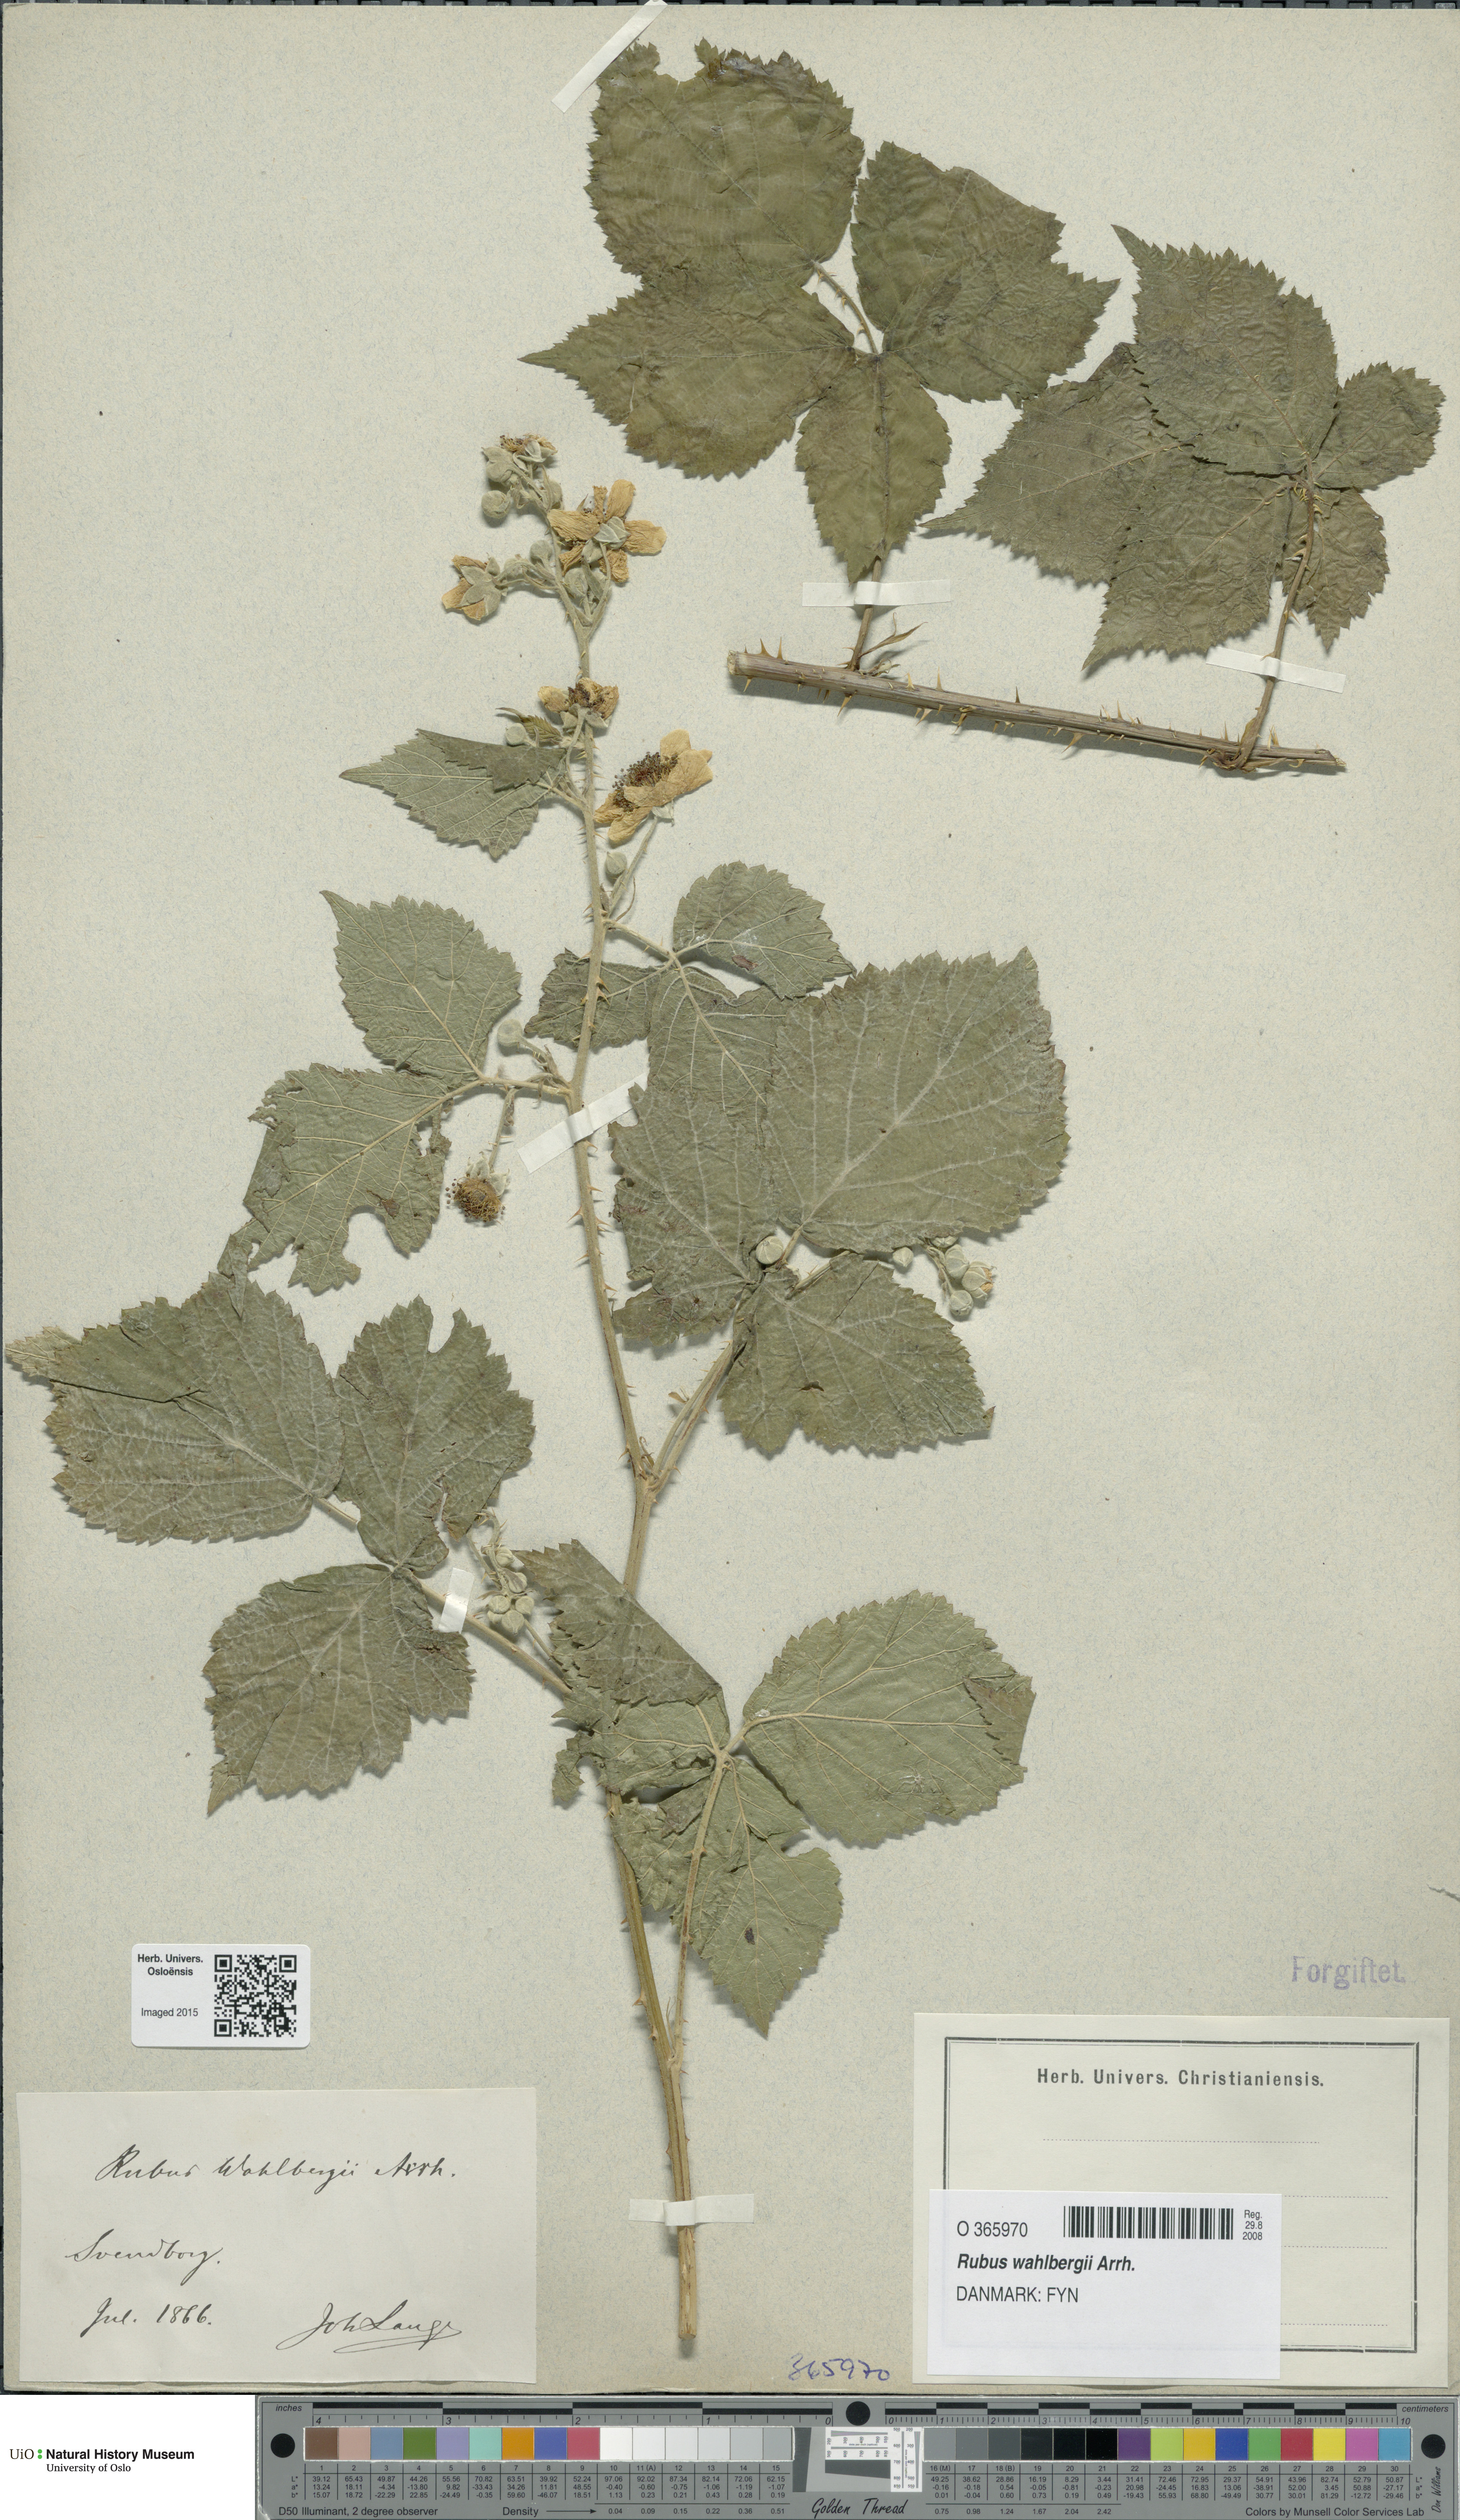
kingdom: Plantae
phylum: Tracheophyta
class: Magnoliopsida
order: Rosales
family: Rosaceae
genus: Rubus
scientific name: Rubus wahlbergii
